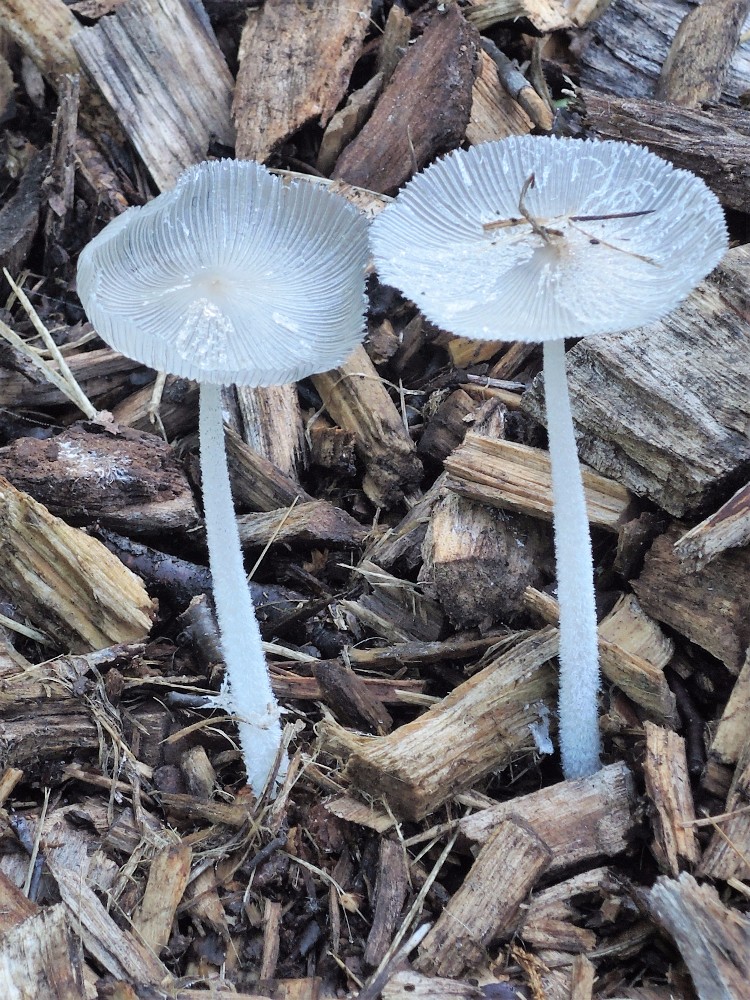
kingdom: Fungi
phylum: Basidiomycota
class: Agaricomycetes
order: Agaricales
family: Psathyrellaceae
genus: Coprinopsis
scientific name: Coprinopsis lagopus
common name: dunstokket blækhat
